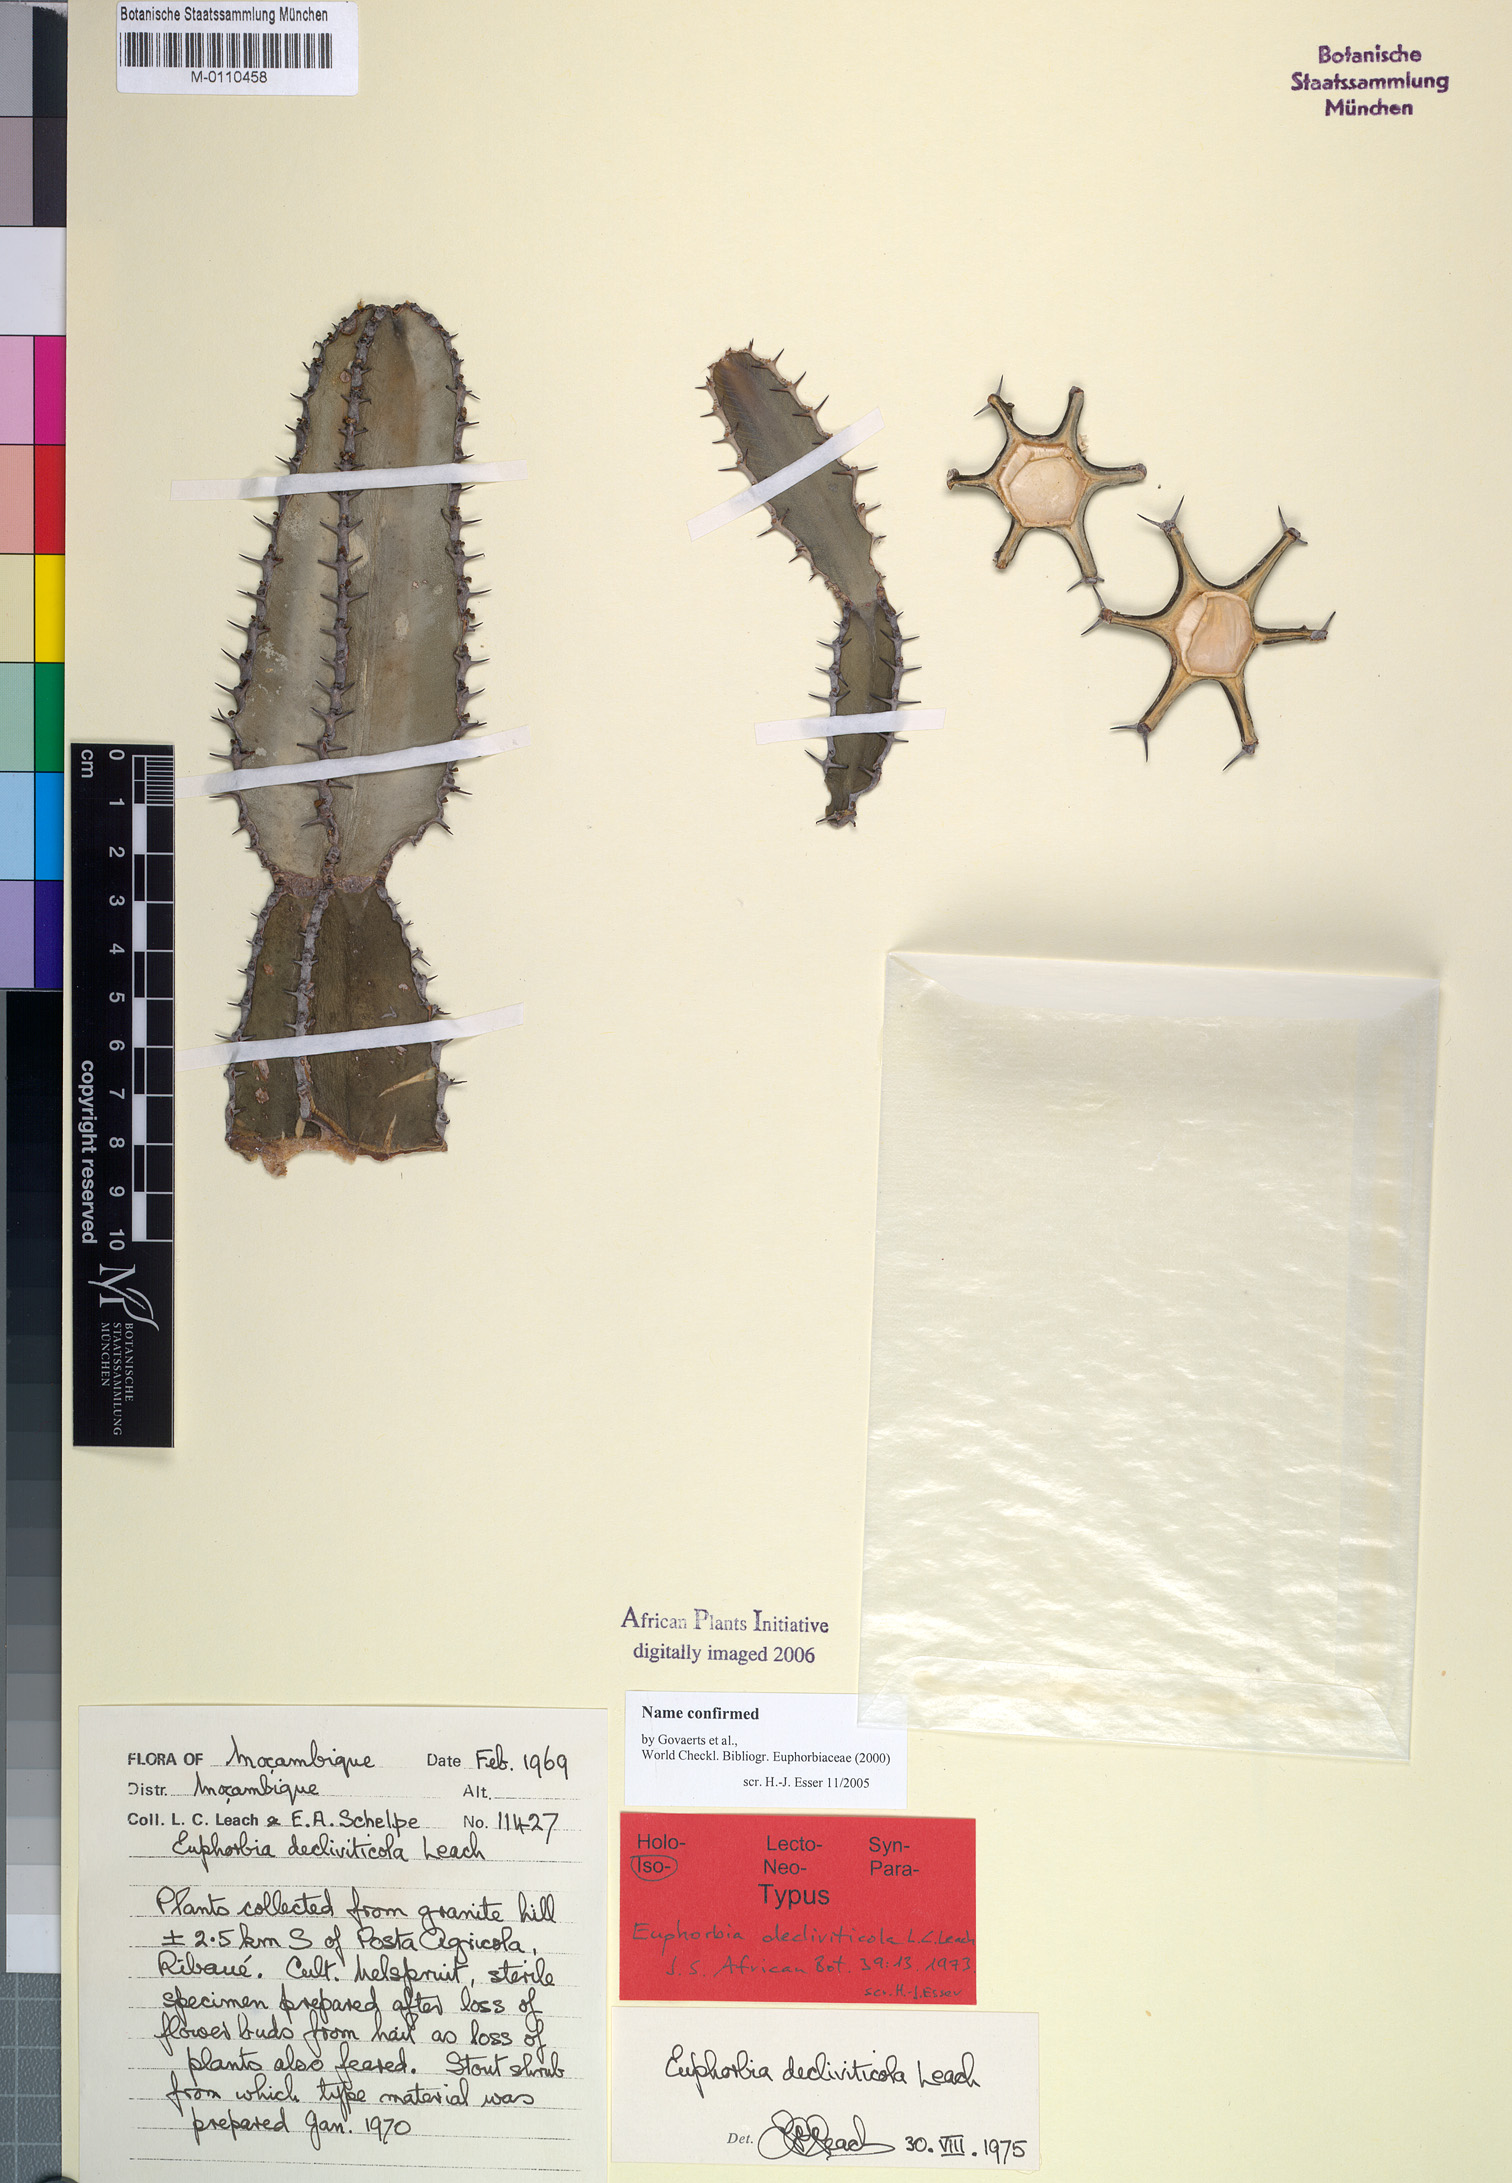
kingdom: Plantae
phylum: Tracheophyta
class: Magnoliopsida
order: Malpighiales
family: Euphorbiaceae
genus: Euphorbia
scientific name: Euphorbia decliviticola
